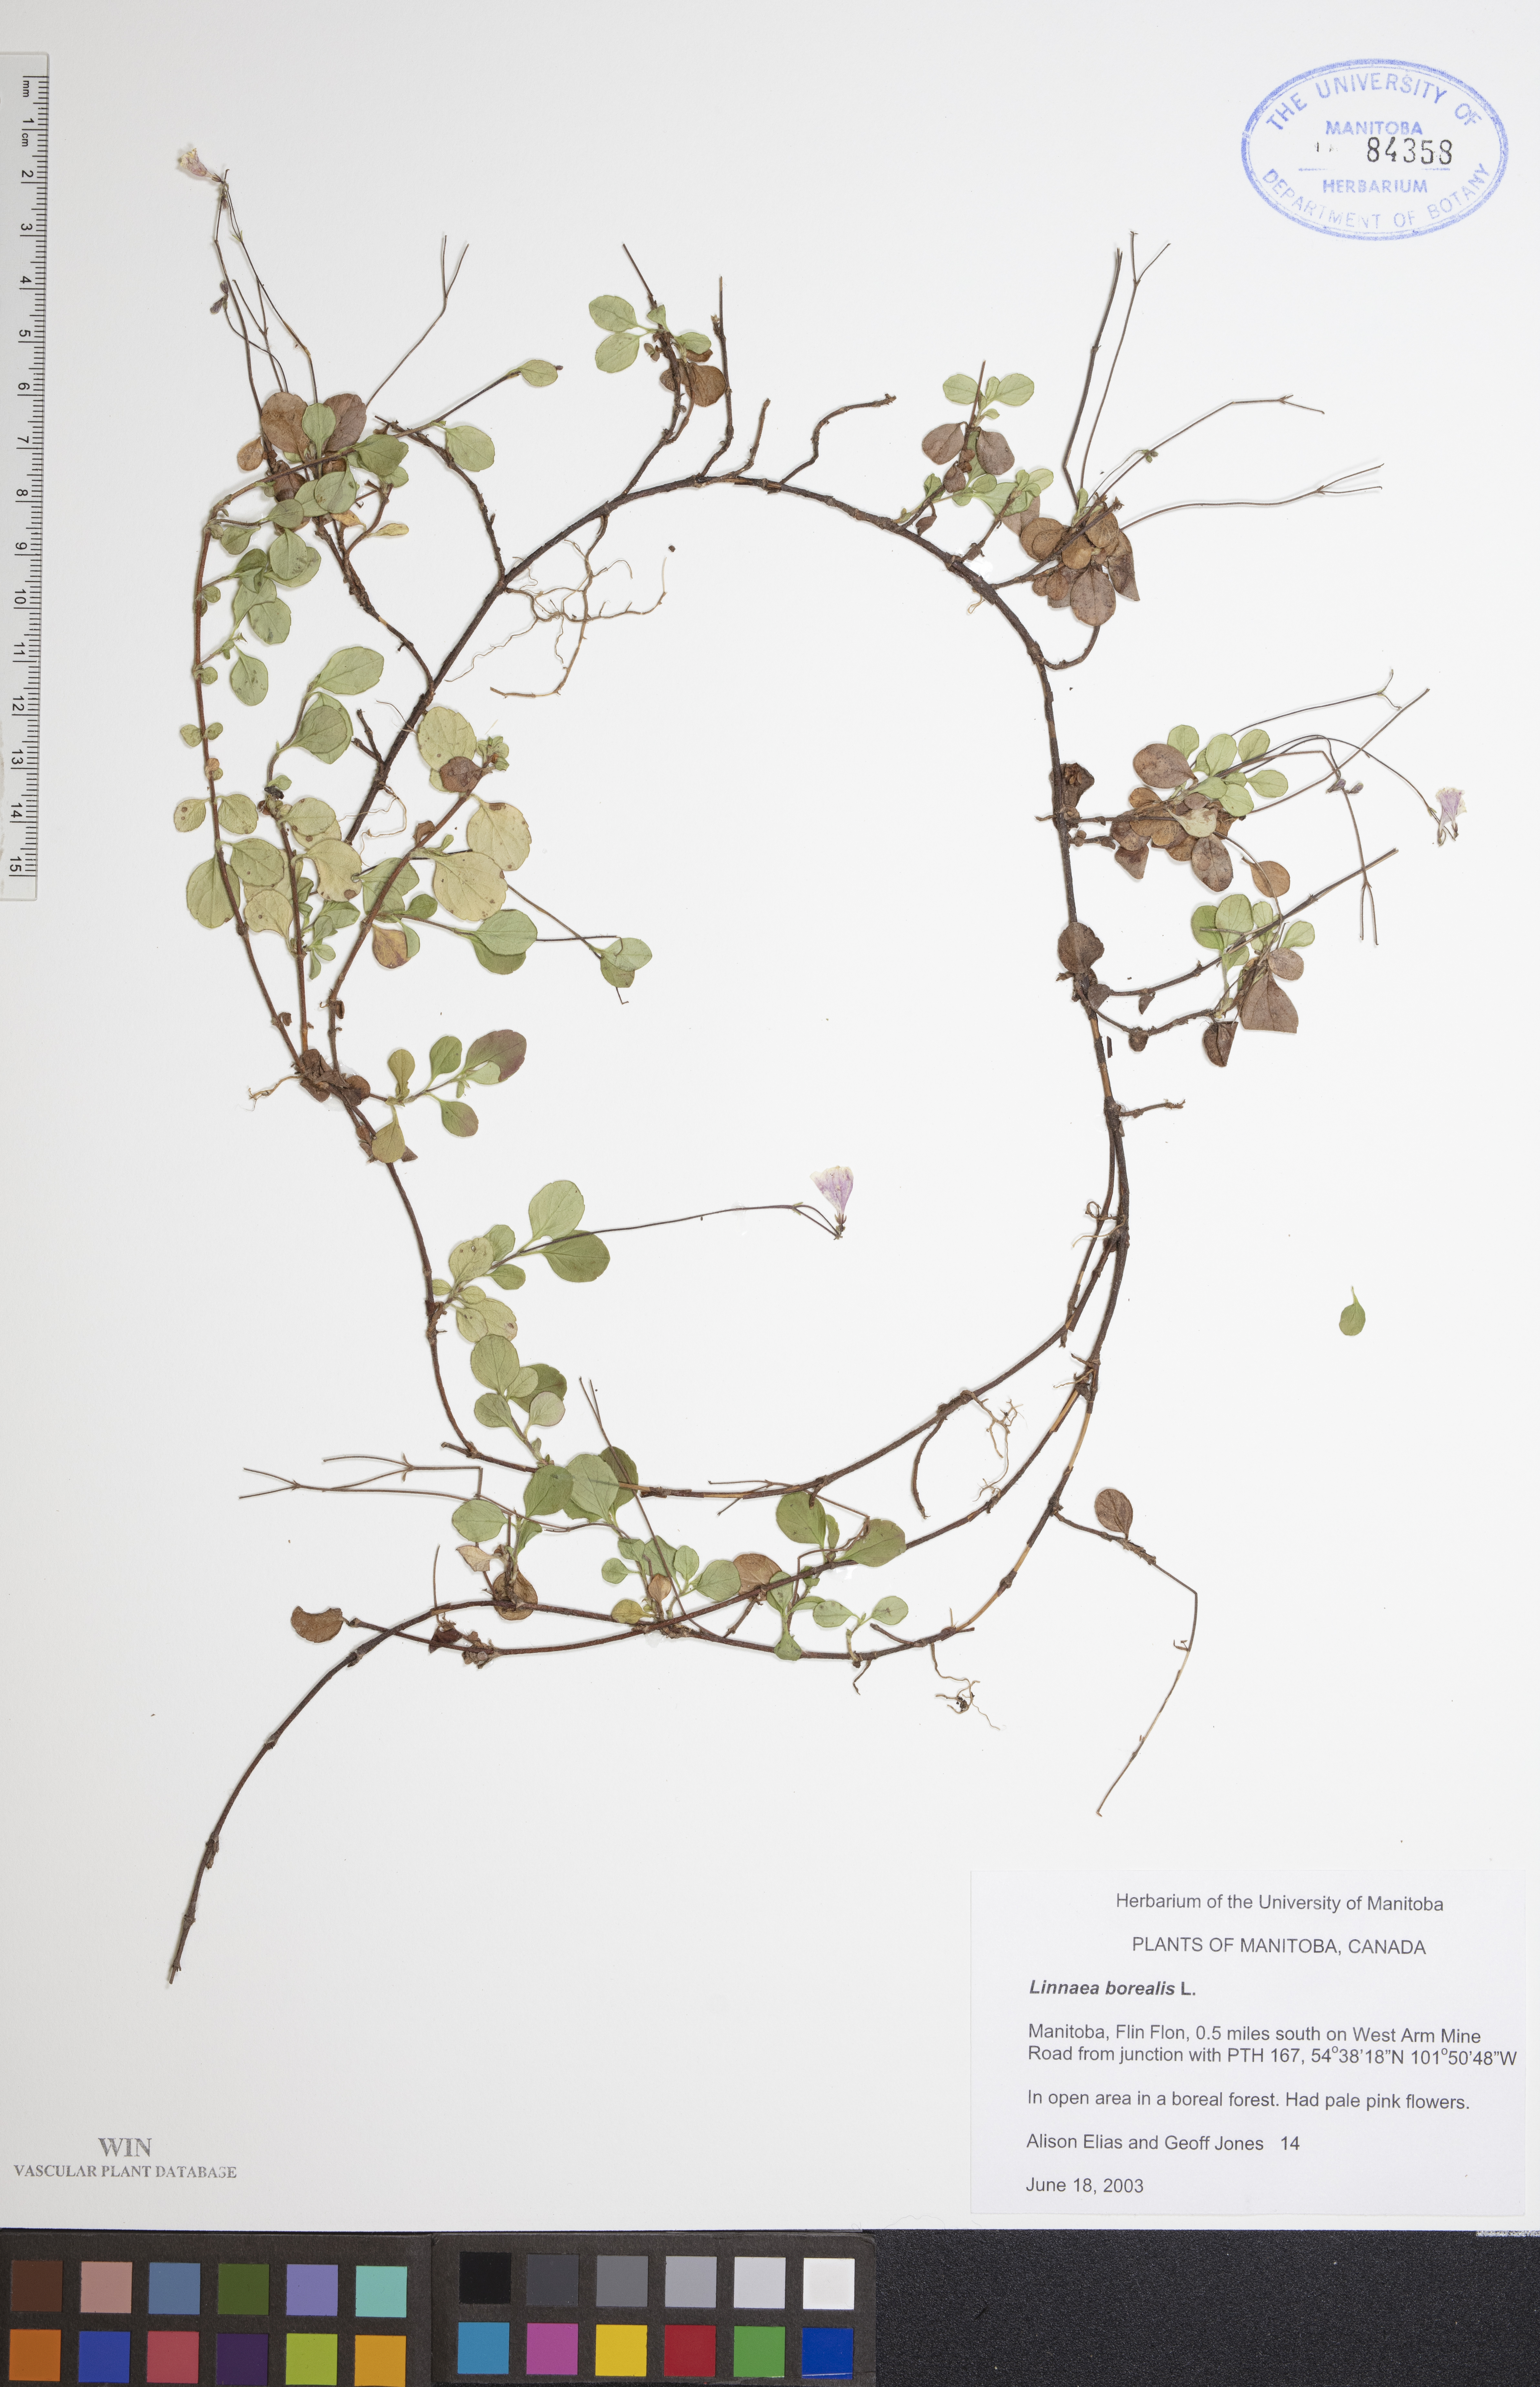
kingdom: Plantae
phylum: Tracheophyta
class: Magnoliopsida
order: Dipsacales
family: Caprifoliaceae
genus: Linnaea
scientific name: Linnaea borealis
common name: Twinflower
